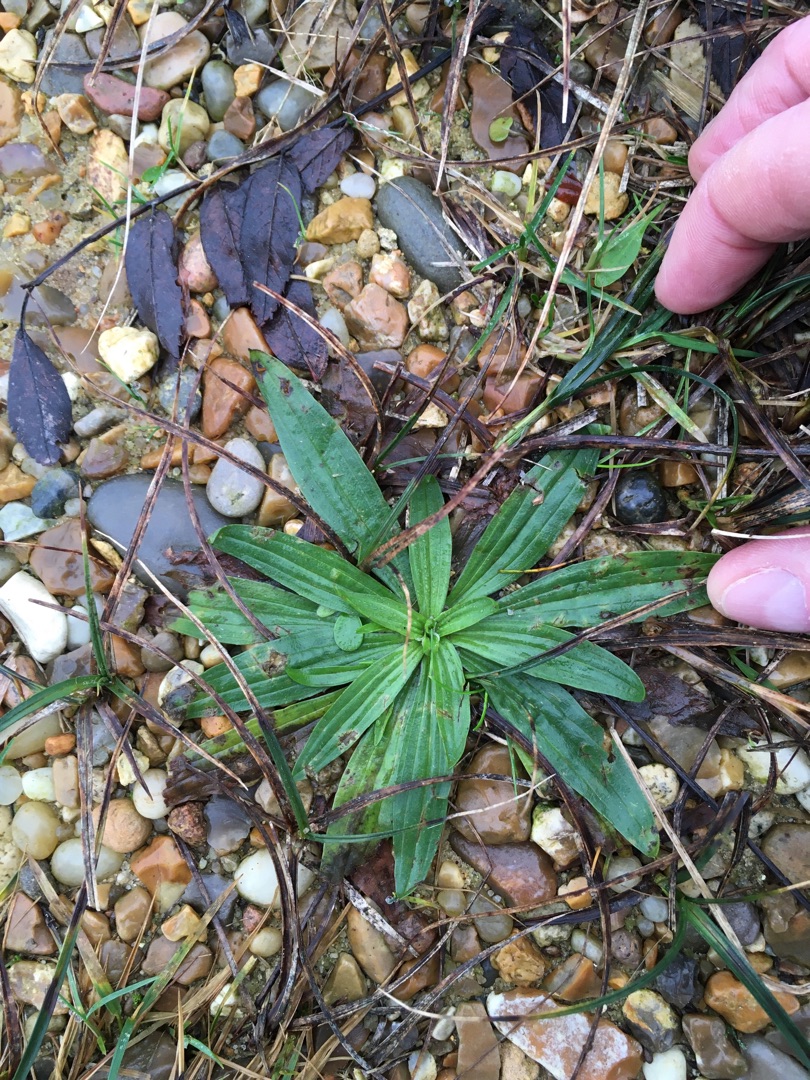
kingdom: Plantae
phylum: Tracheophyta
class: Magnoliopsida
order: Lamiales
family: Plantaginaceae
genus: Plantago
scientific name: Plantago lanceolata
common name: Lancet-vejbred
